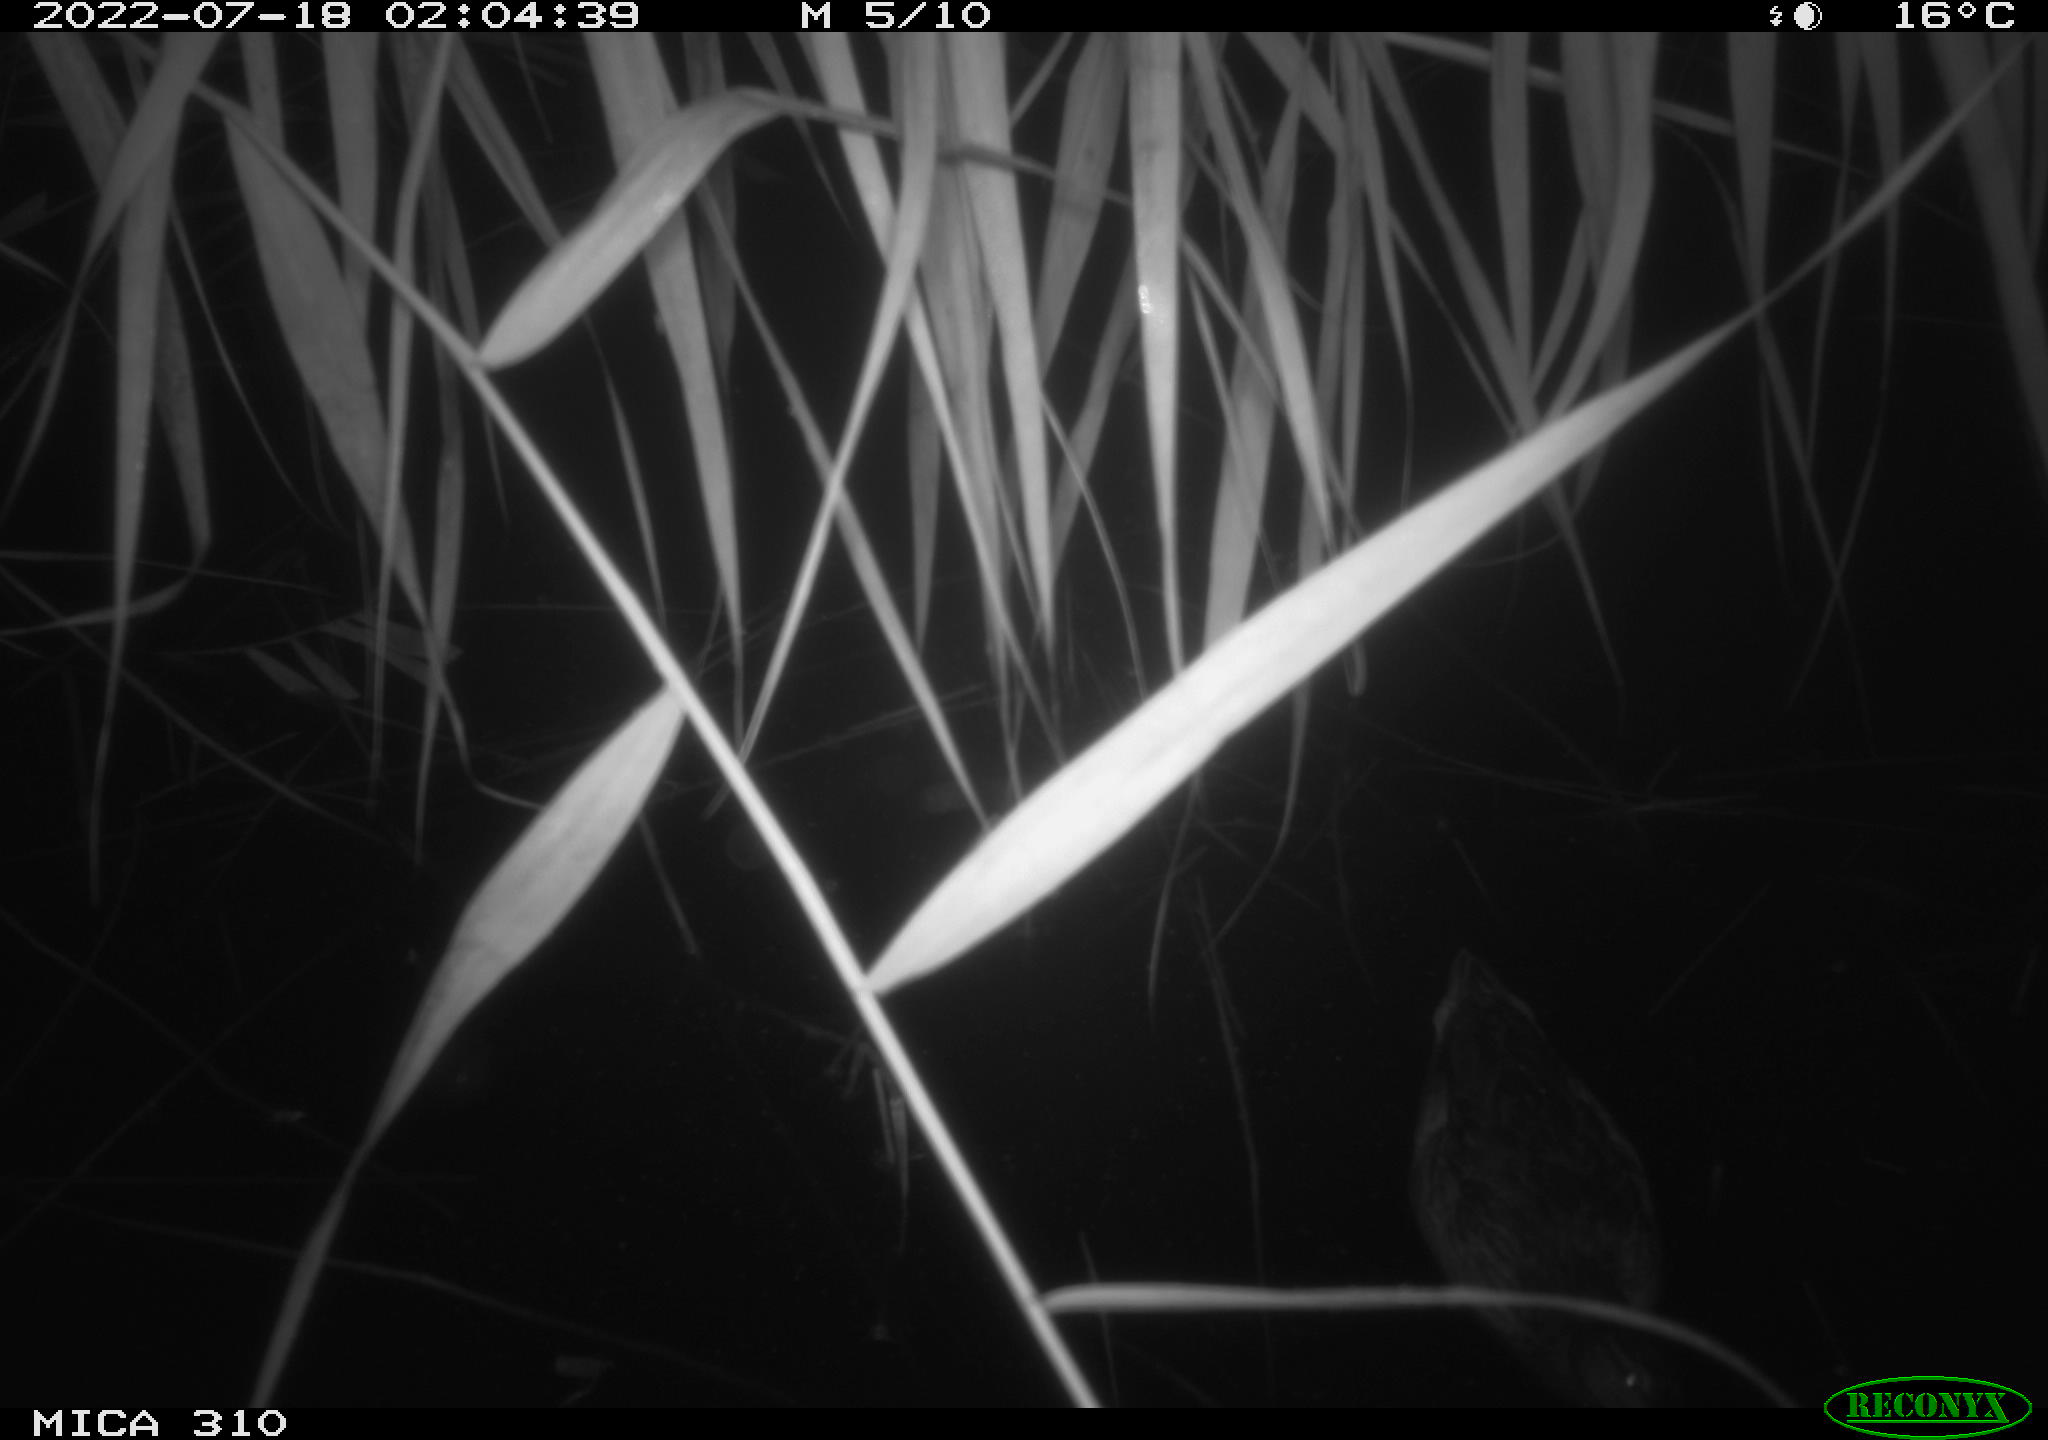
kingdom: Animalia
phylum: Chordata
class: Aves
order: Anseriformes
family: Anatidae
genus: Anas
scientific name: Anas platyrhynchos
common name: Mallard
